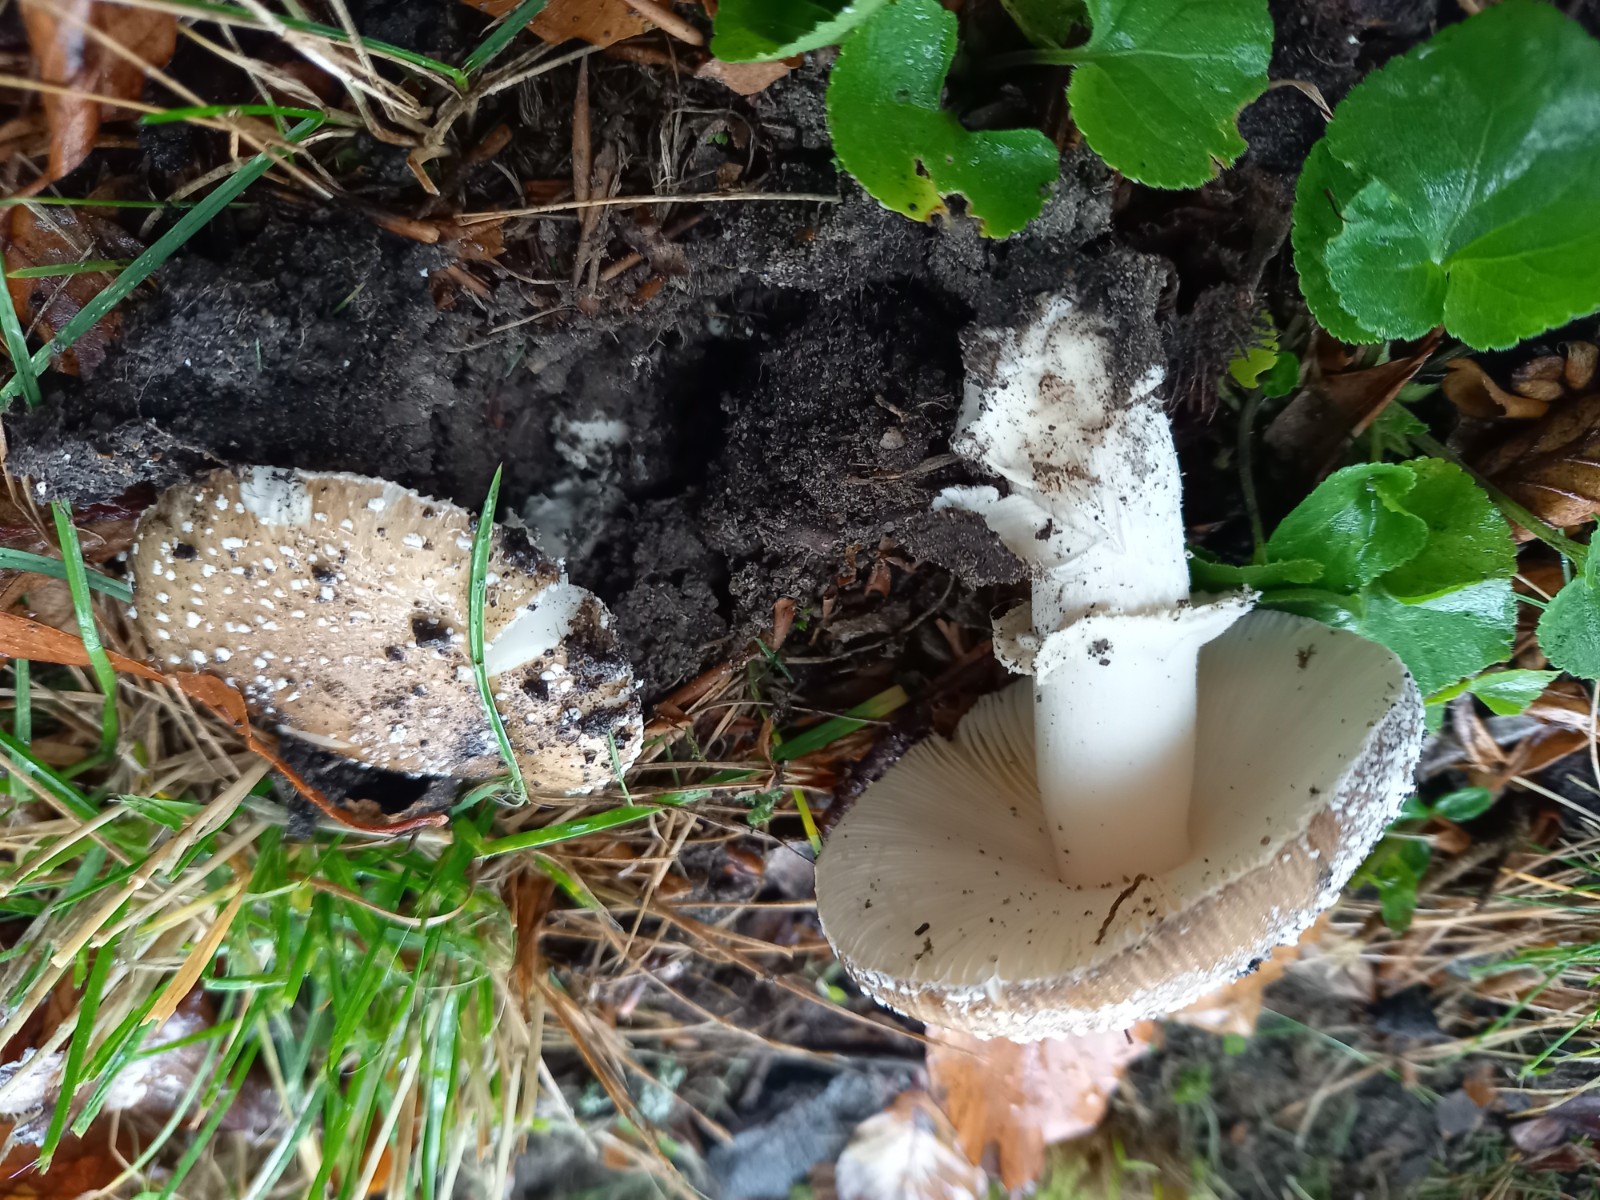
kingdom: Fungi
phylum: Basidiomycota
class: Agaricomycetes
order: Agaricales
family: Amanitaceae
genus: Amanita
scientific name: Amanita pantherina
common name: panter-fluesvamp
